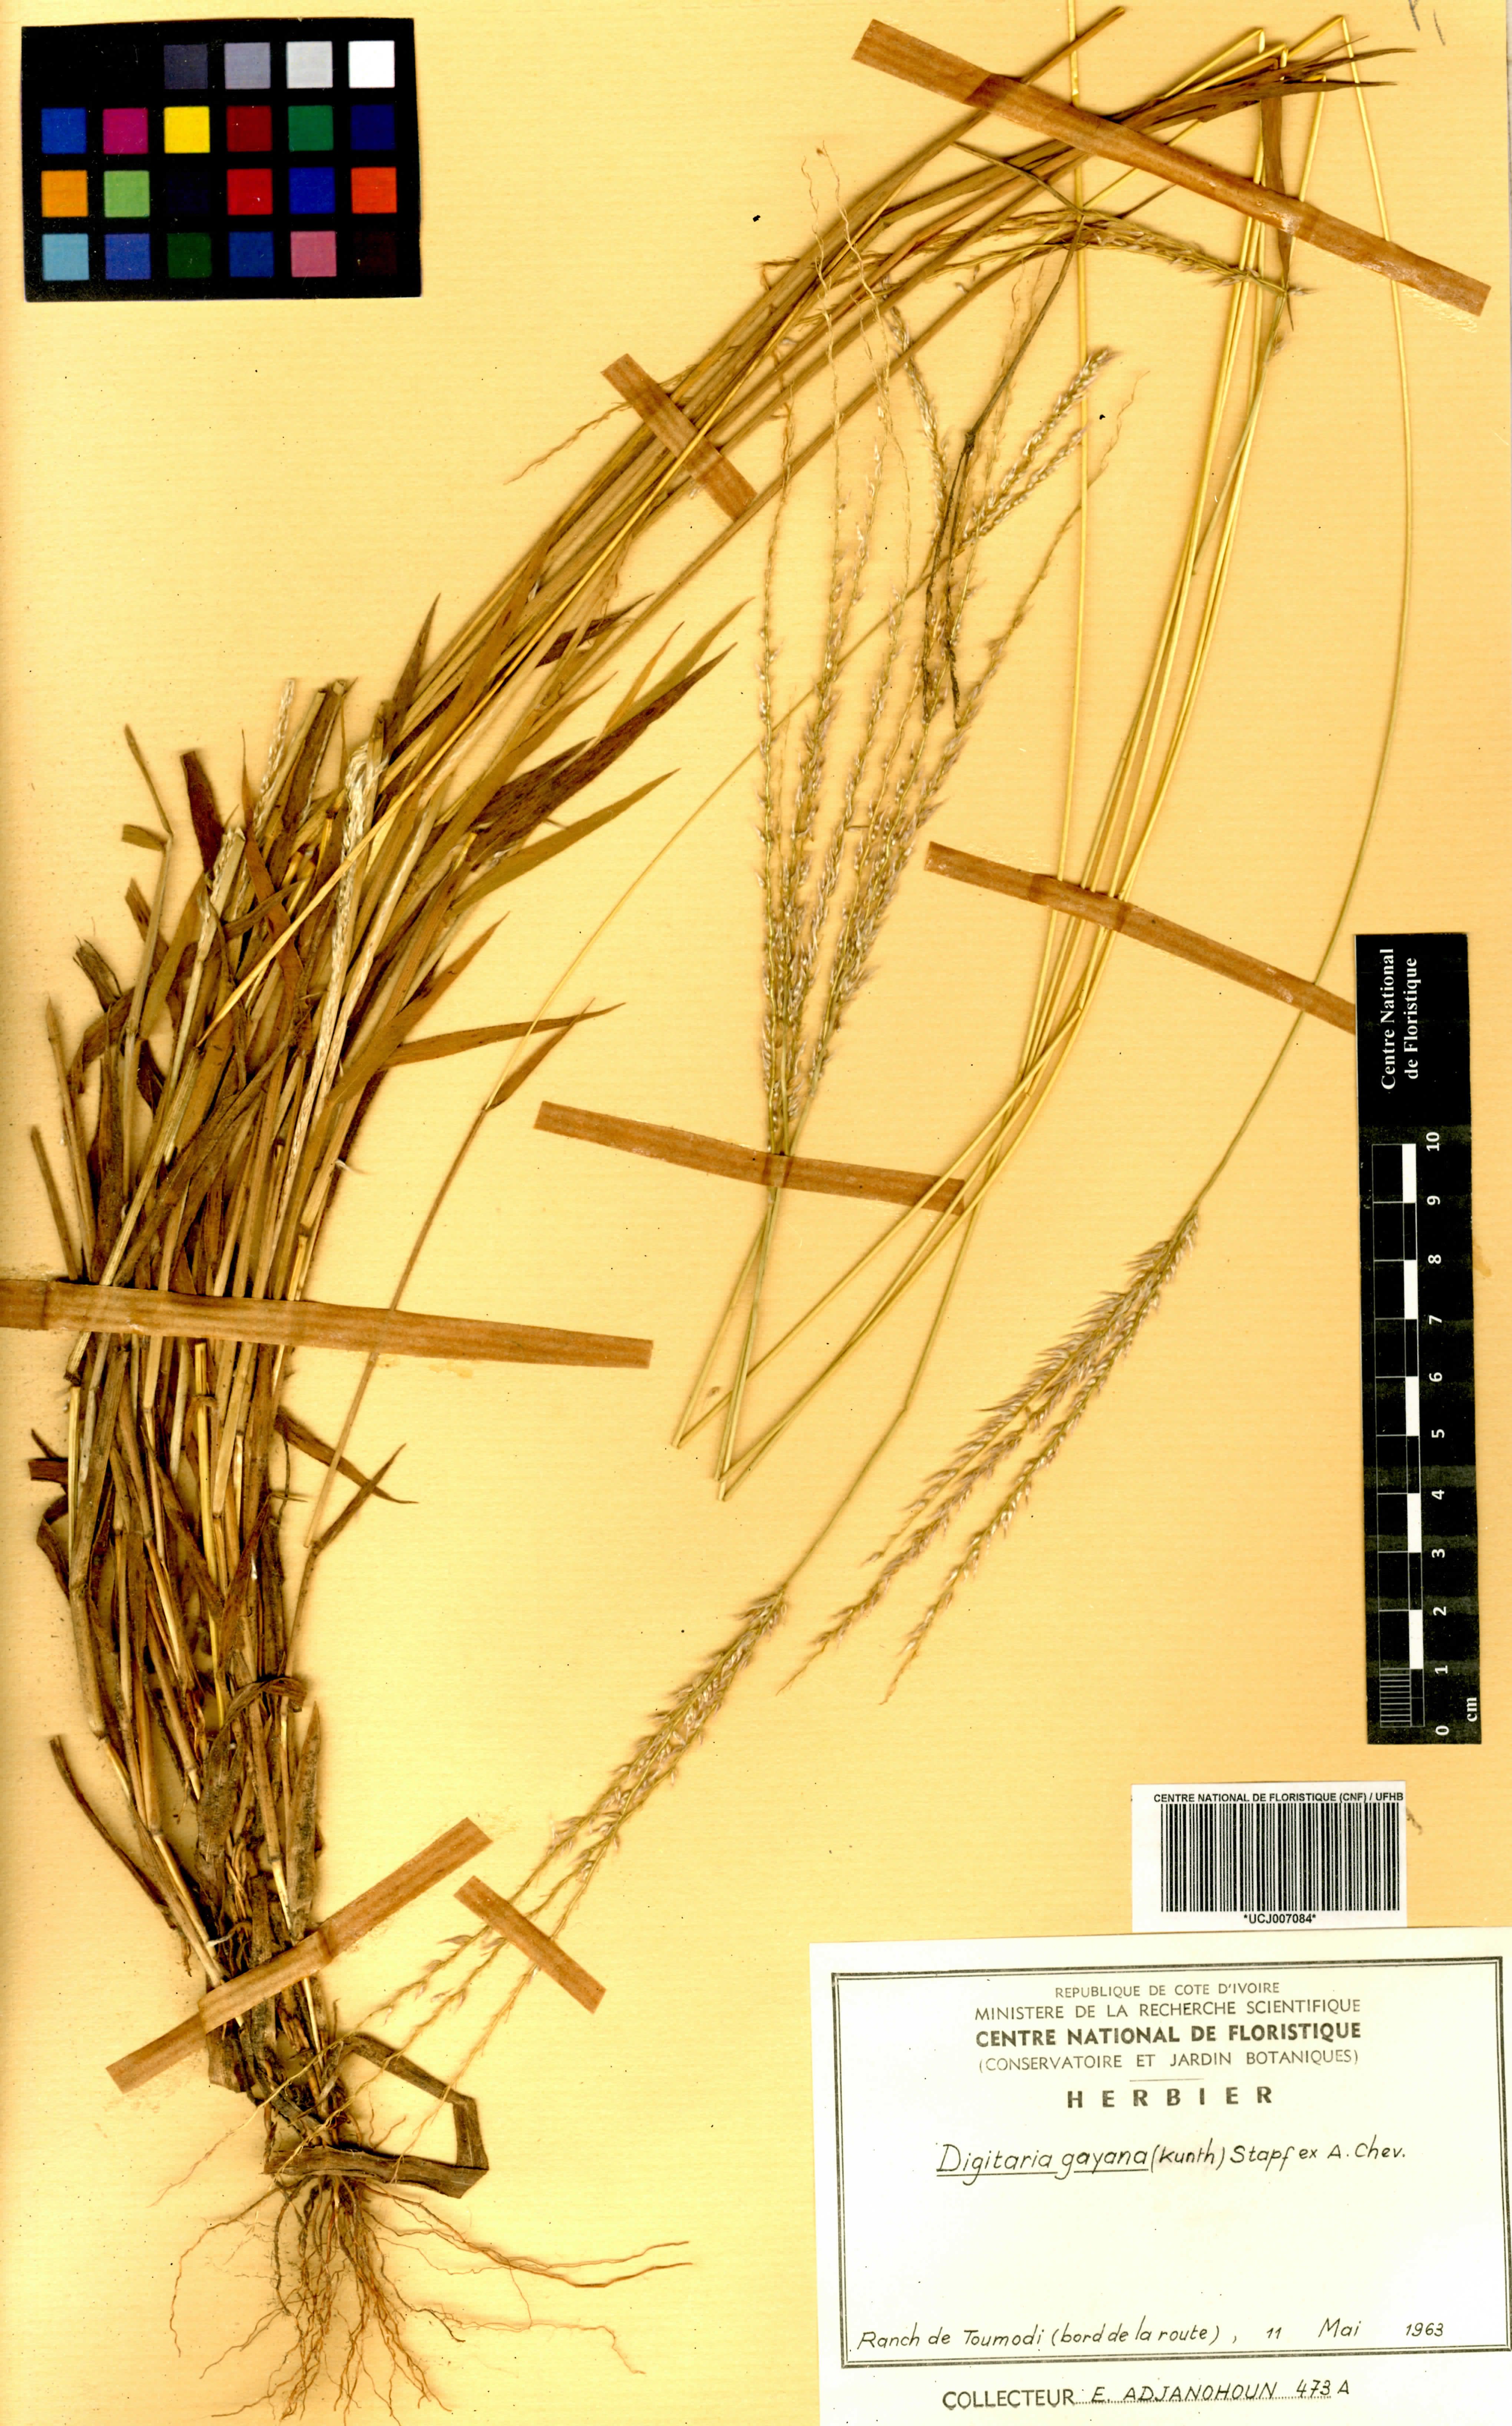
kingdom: Plantae
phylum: Tracheophyta
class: Liliopsida
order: Poales
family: Poaceae
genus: Digitaria
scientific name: Digitaria gayana
